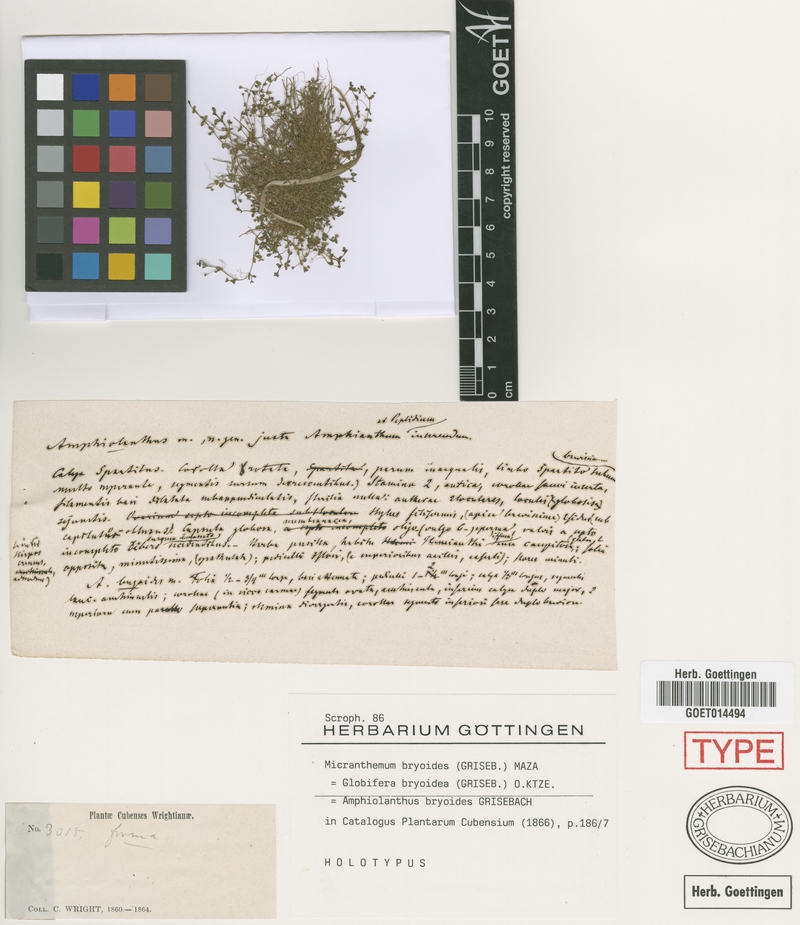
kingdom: Plantae
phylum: Tracheophyta
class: Magnoliopsida
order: Lamiales
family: Linderniaceae
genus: Micranthemum
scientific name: Micranthemum bryoides
